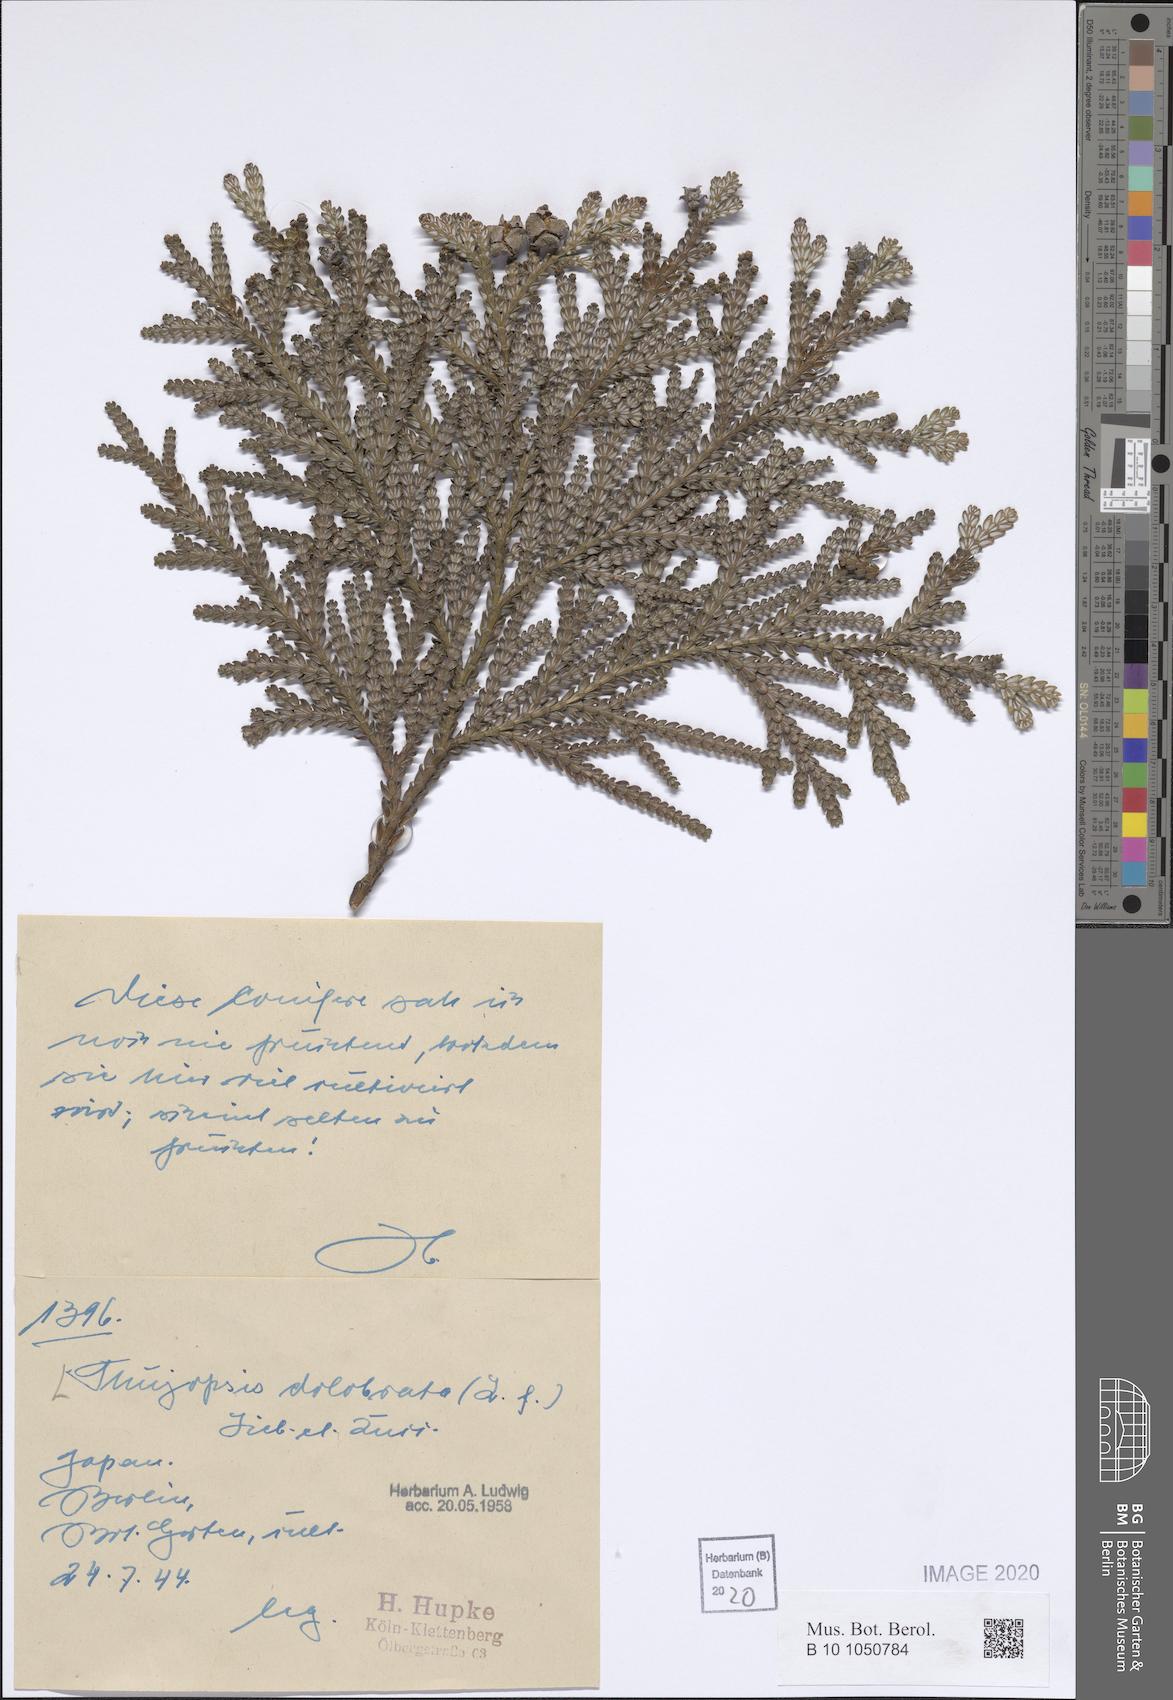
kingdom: Plantae
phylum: Tracheophyta
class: Pinopsida
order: Pinales
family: Cupressaceae
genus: Thujopsis
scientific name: Thujopsis dolabrata
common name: Hiba
